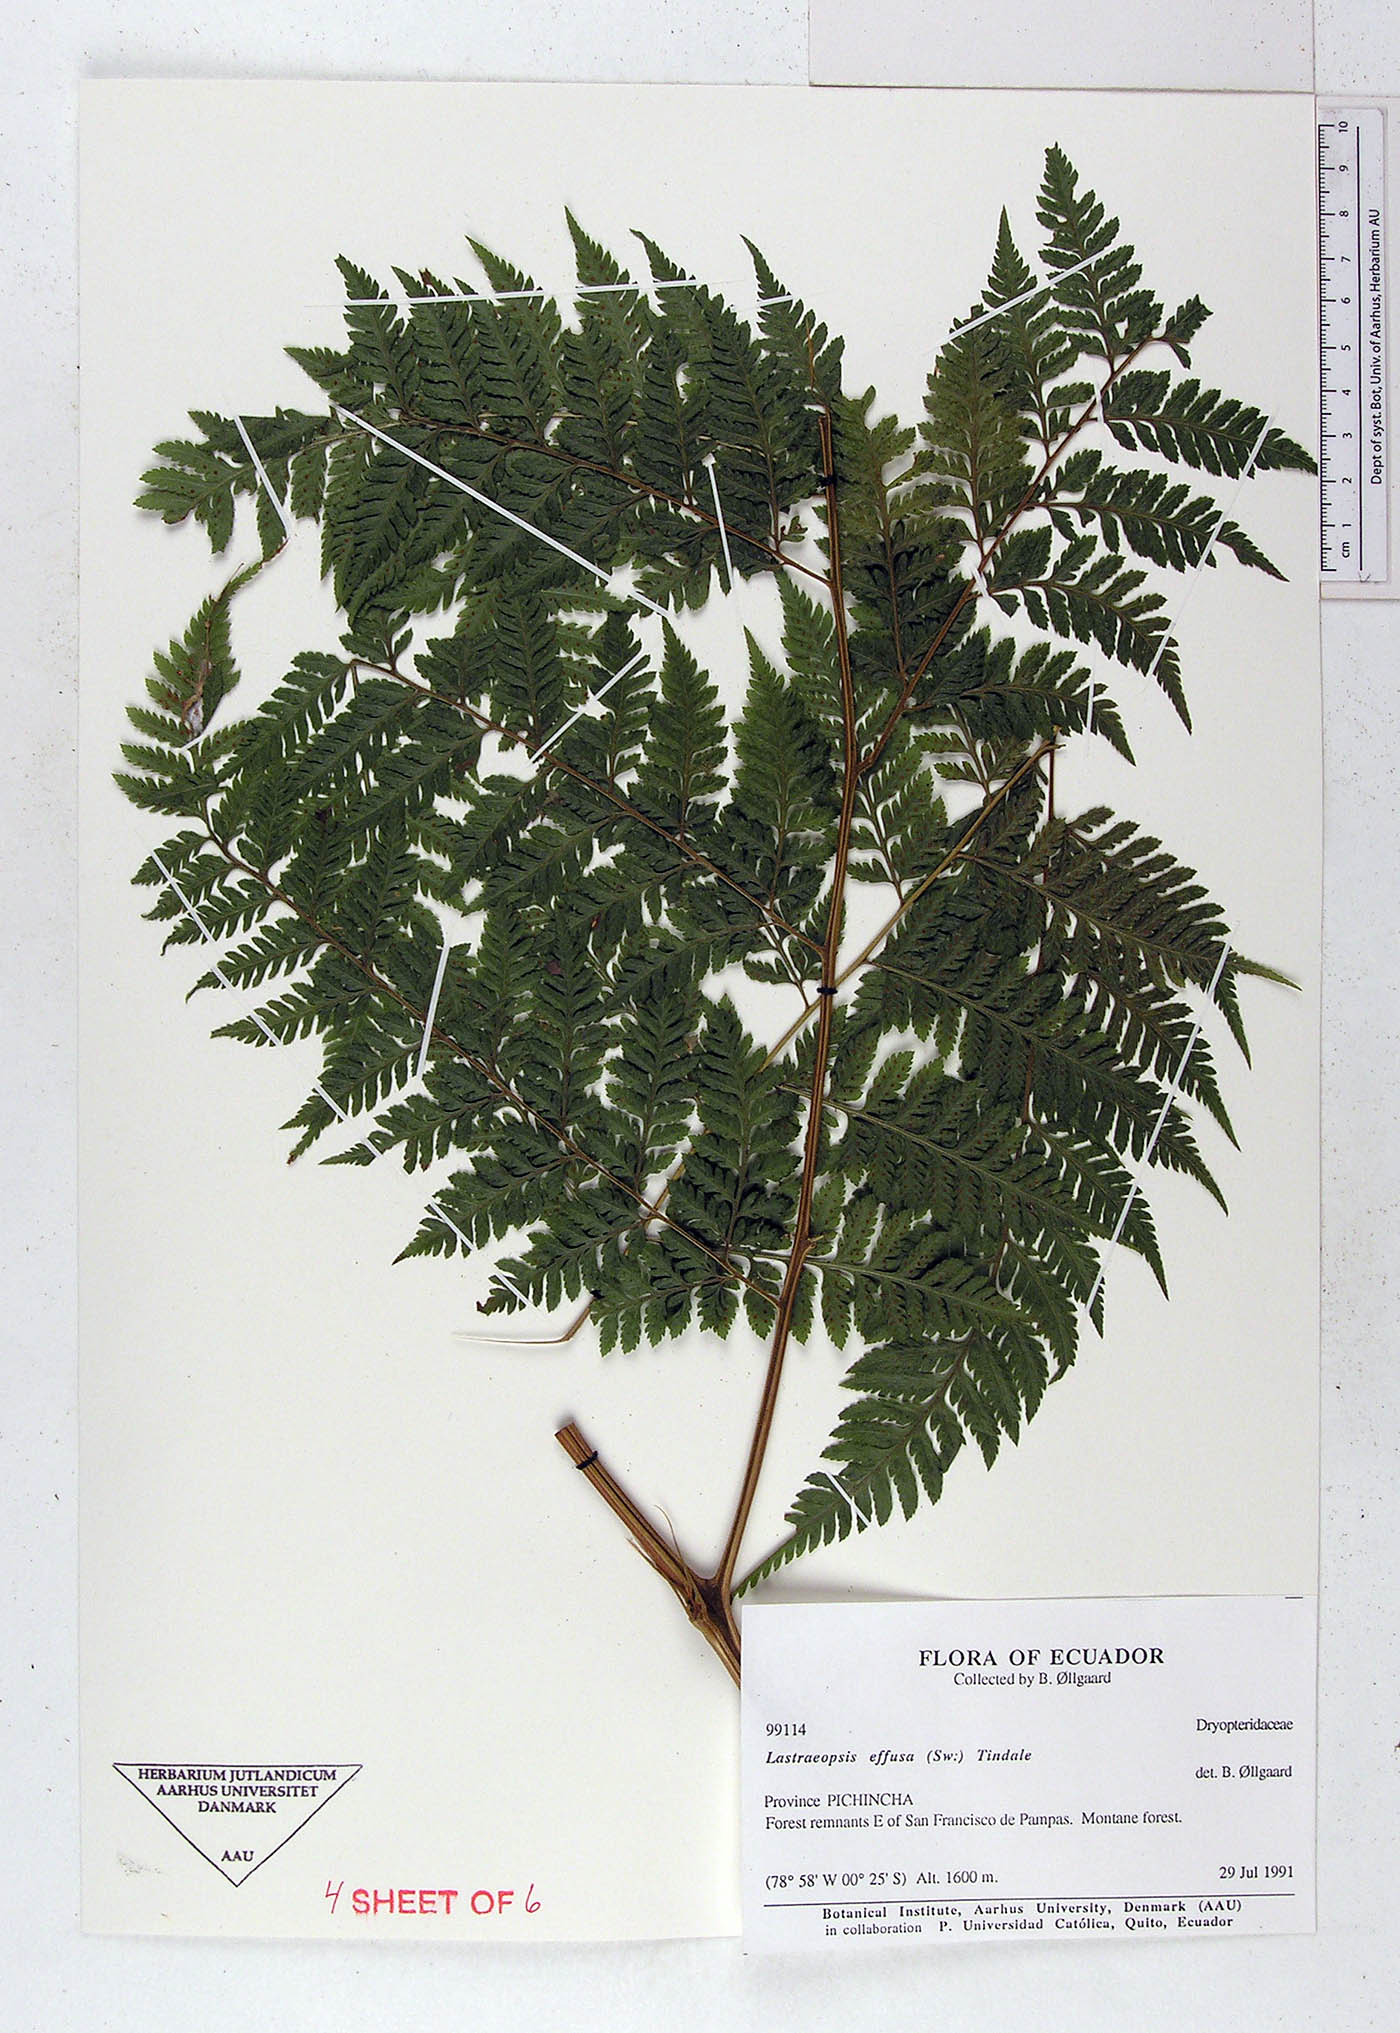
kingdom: Plantae
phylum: Tracheophyta
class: Polypodiopsida
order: Polypodiales
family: Dryopteridaceae
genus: Parapolystichum
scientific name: Parapolystichum effusum
